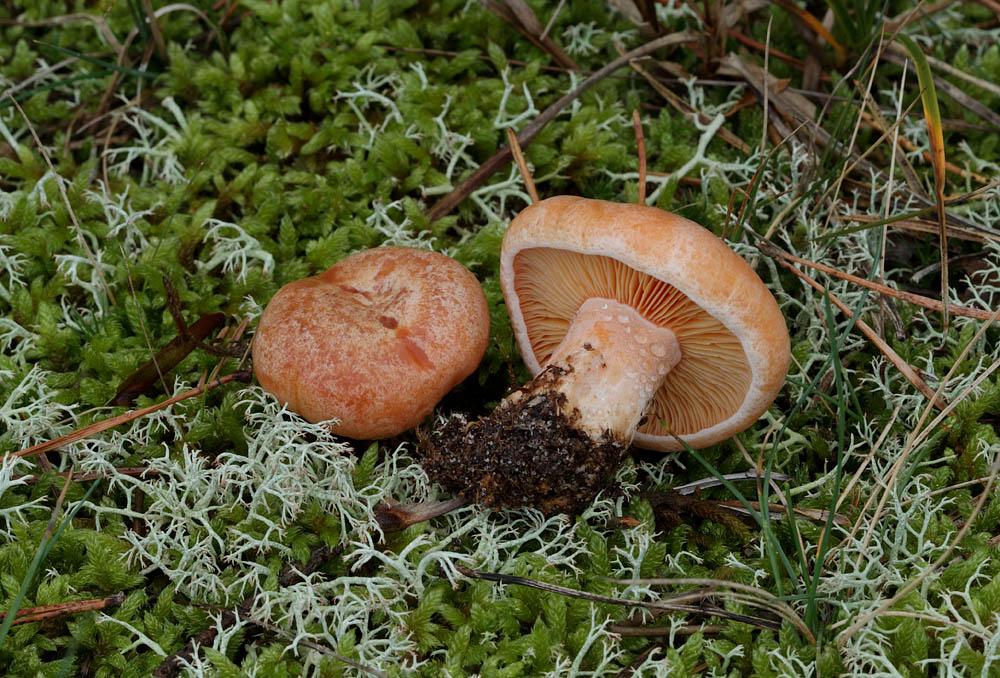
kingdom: Fungi
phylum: Basidiomycota
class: Agaricomycetes
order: Russulales
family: Russulaceae
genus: Lactarius
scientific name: Lactarius deliciosus
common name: velsmagende mælkehat
